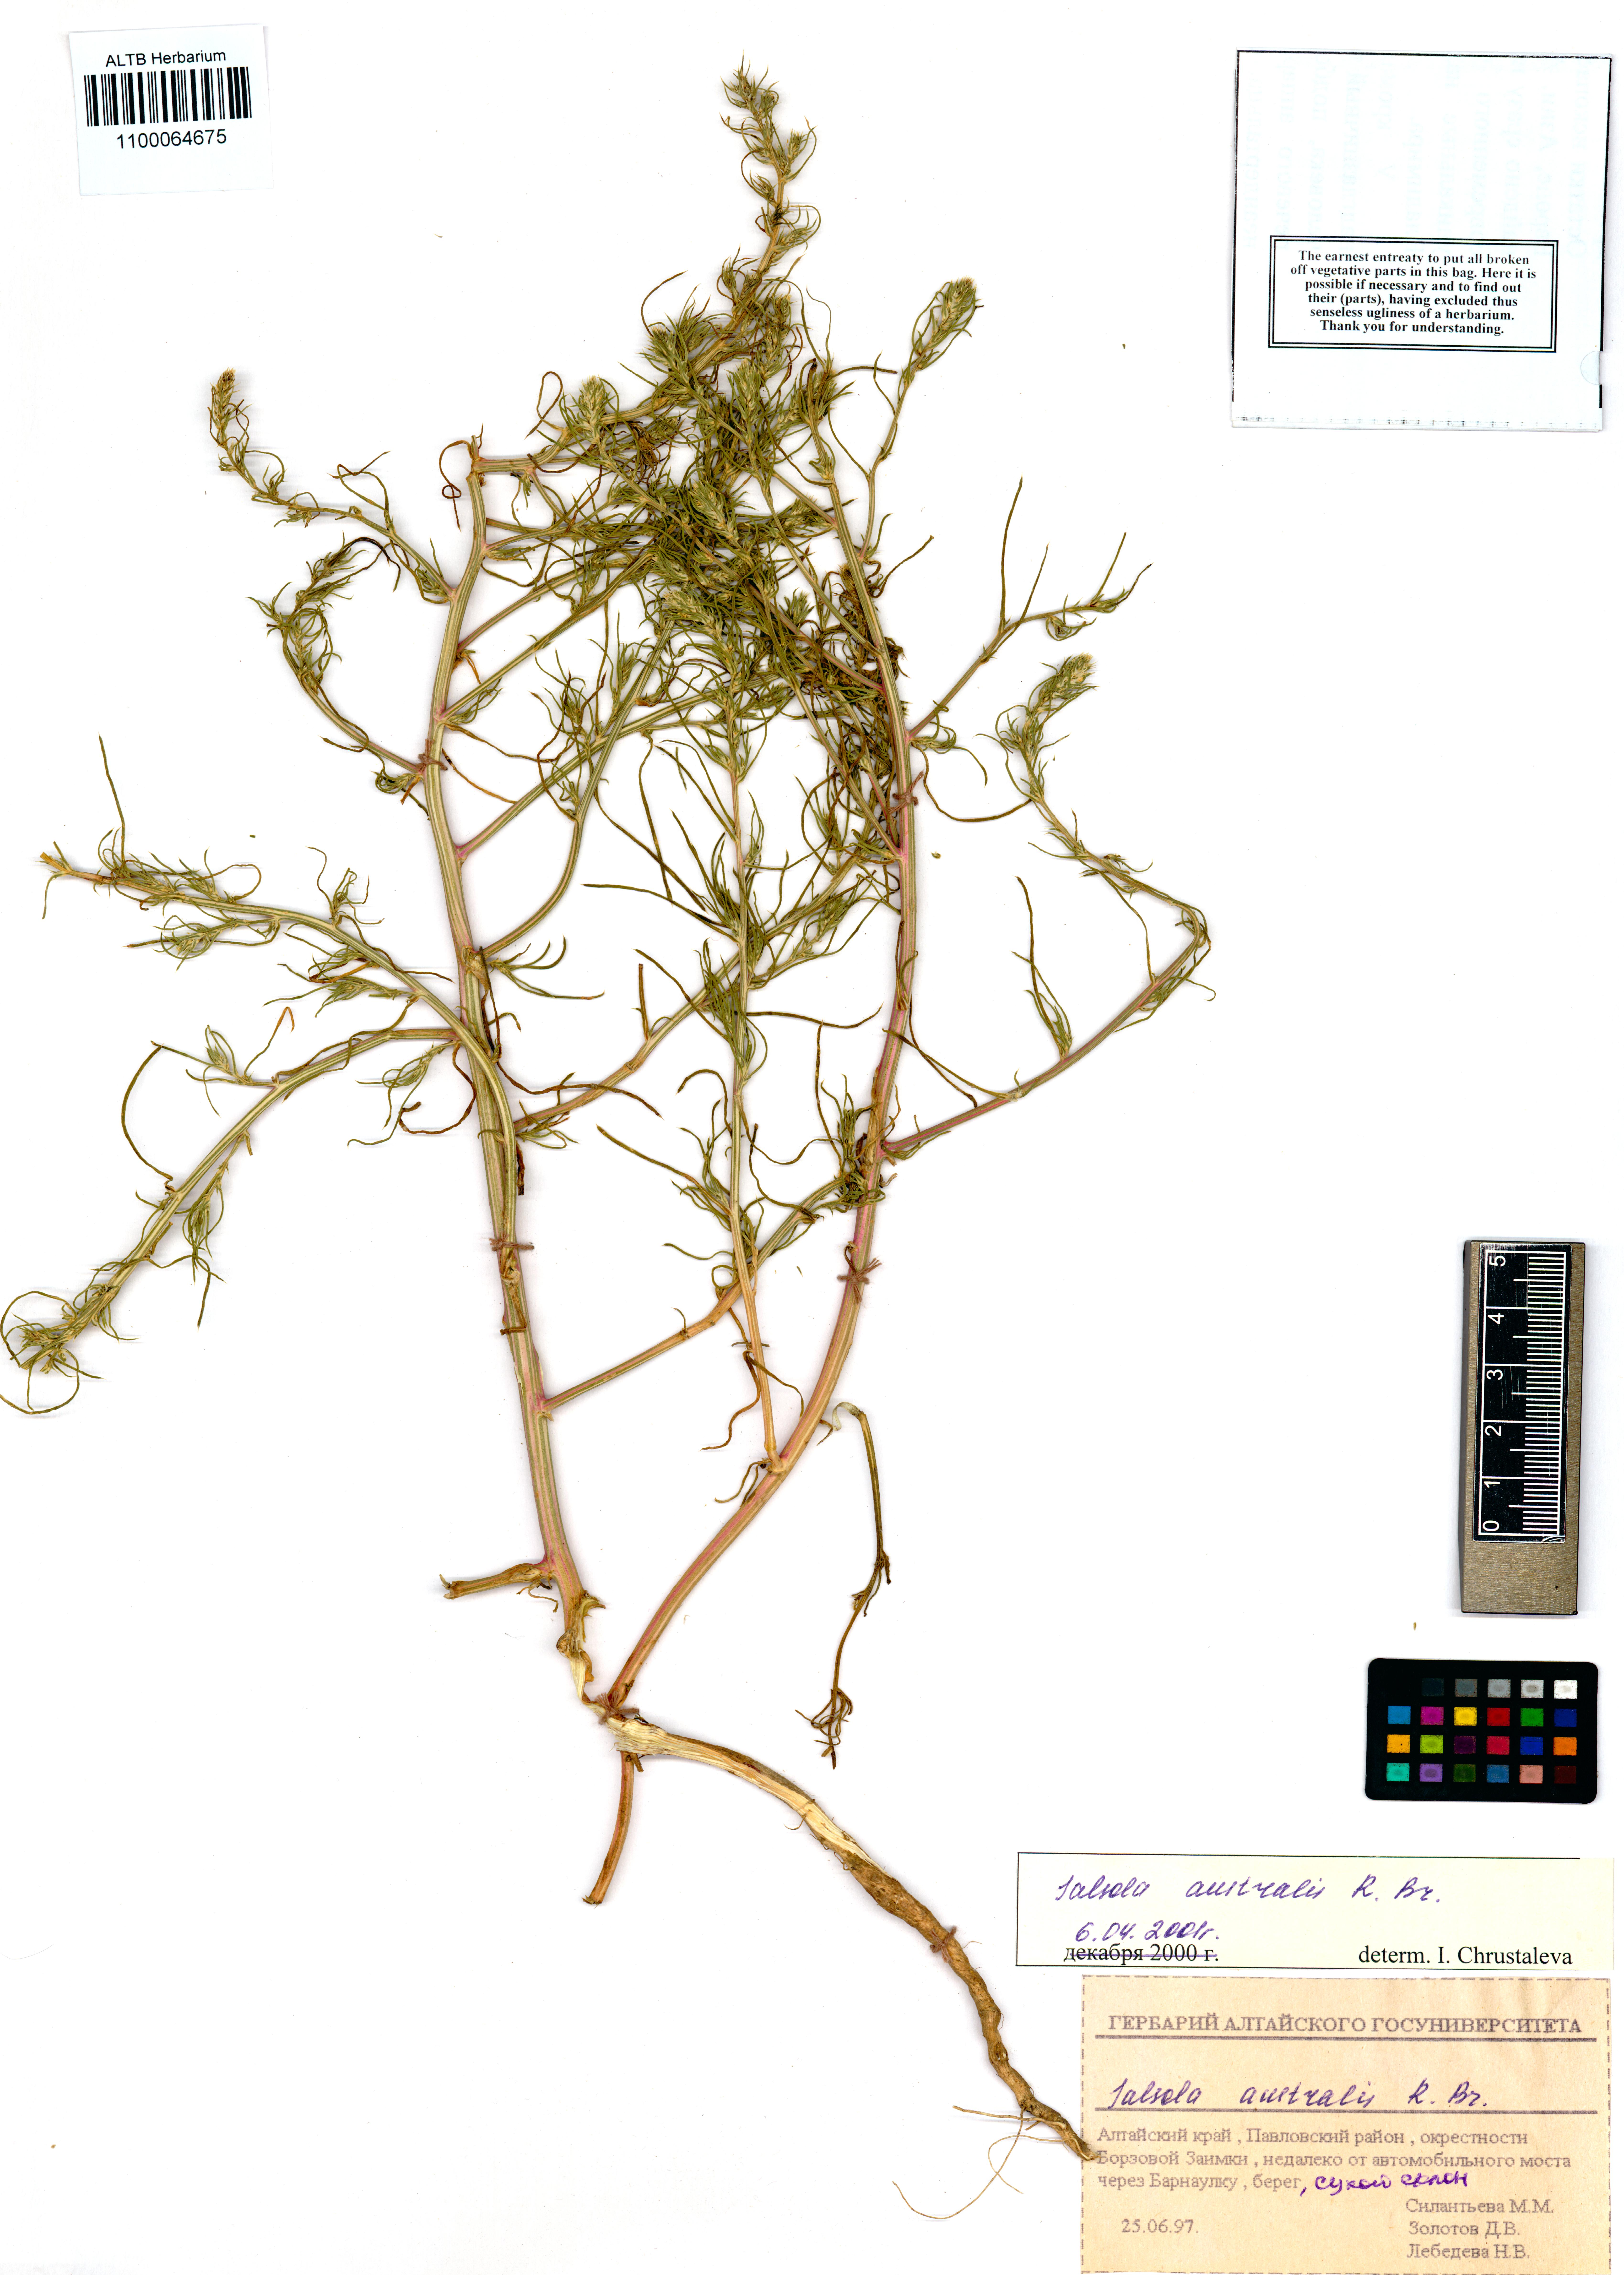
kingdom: Plantae
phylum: Tracheophyta
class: Magnoliopsida
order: Caryophyllales
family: Amaranthaceae
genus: Salsola
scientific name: Salsola australis
